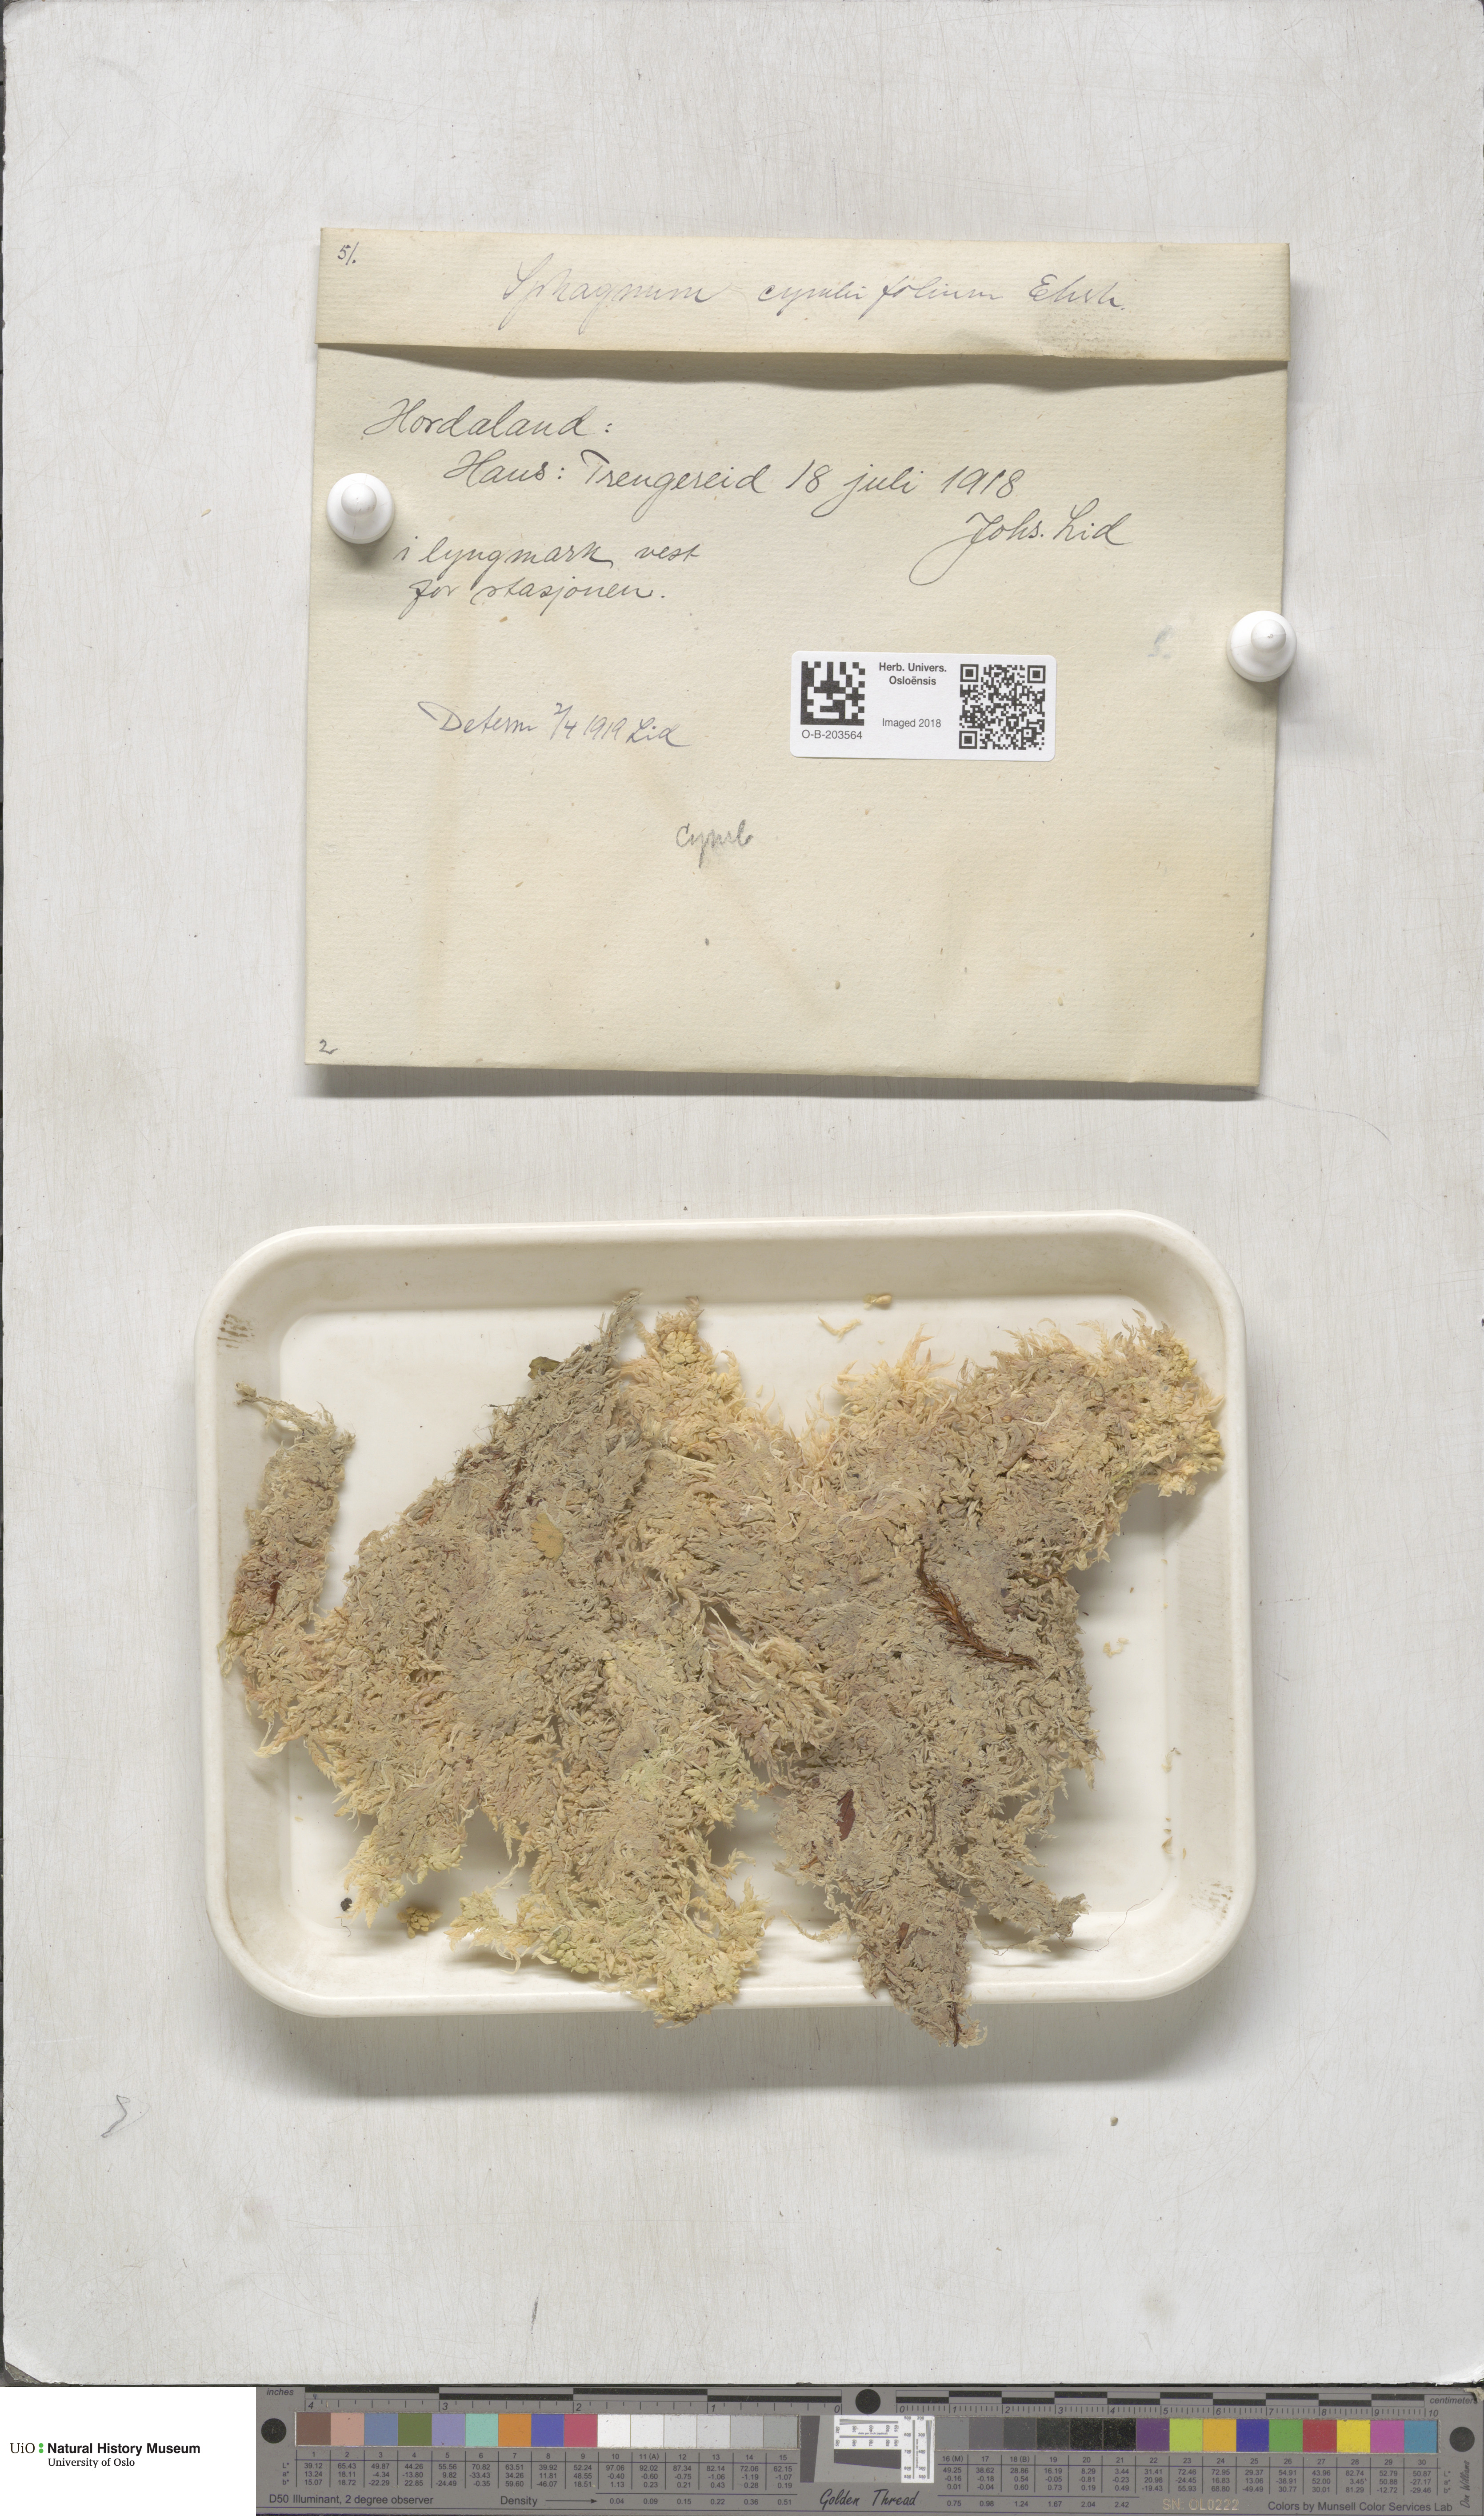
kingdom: Plantae
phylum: Bryophyta
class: Sphagnopsida
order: Sphagnales
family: Sphagnaceae
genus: Sphagnum
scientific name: Sphagnum palustre
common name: Blunt-leaved bog-moss
